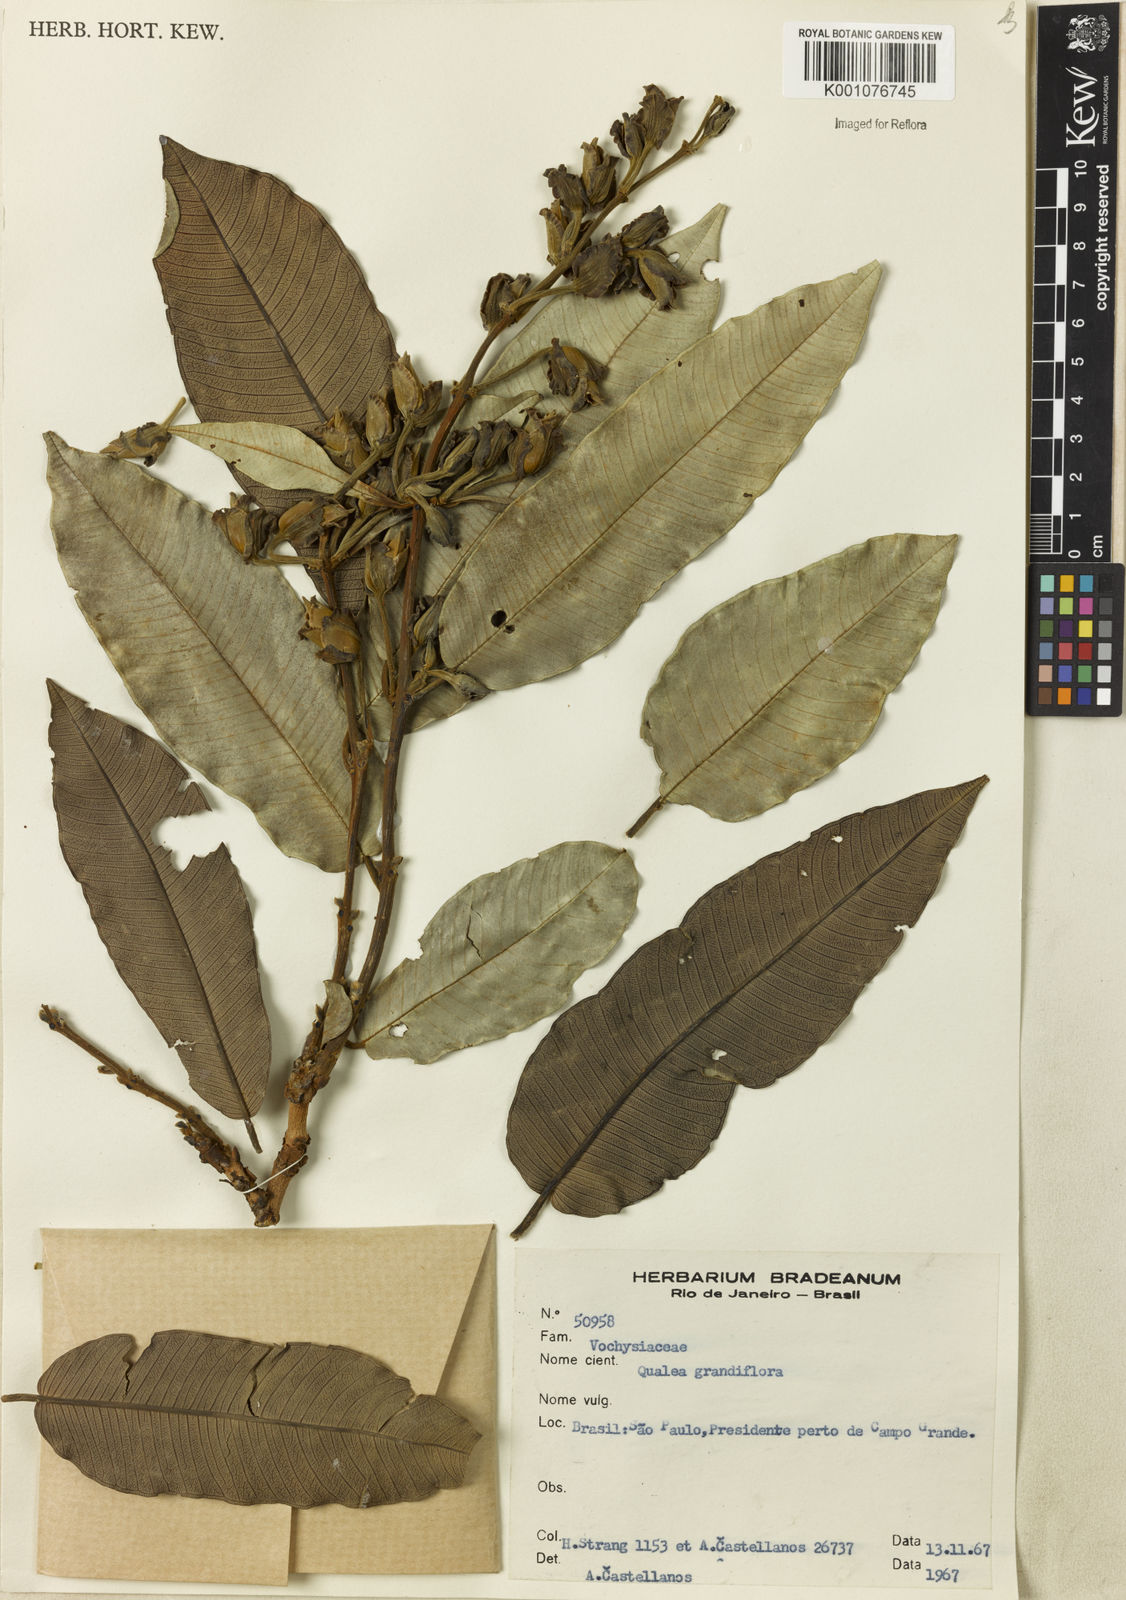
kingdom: Plantae
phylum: Tracheophyta
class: Magnoliopsida
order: Myrtales
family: Vochysiaceae
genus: Qualea
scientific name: Qualea grandiflora
